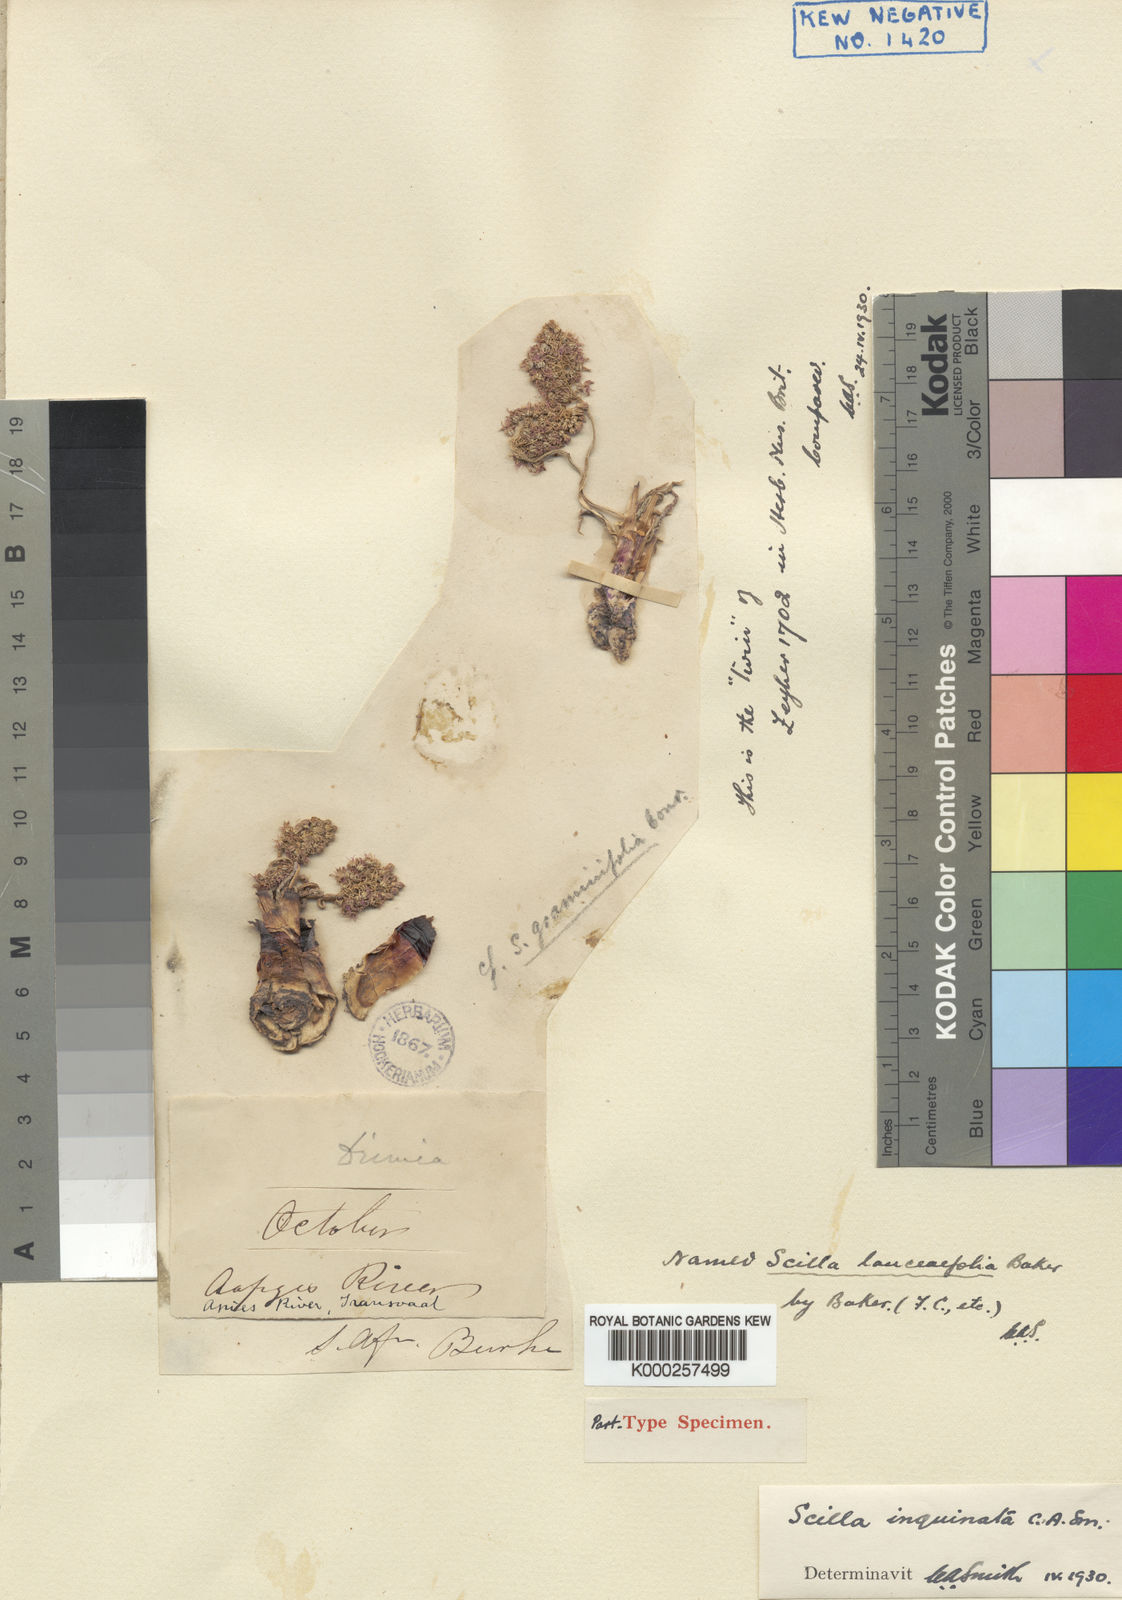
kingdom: Plantae
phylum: Tracheophyta
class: Liliopsida
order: Asparagales
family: Asparagaceae
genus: Ledebouria
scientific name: Ledebouria inquinata
